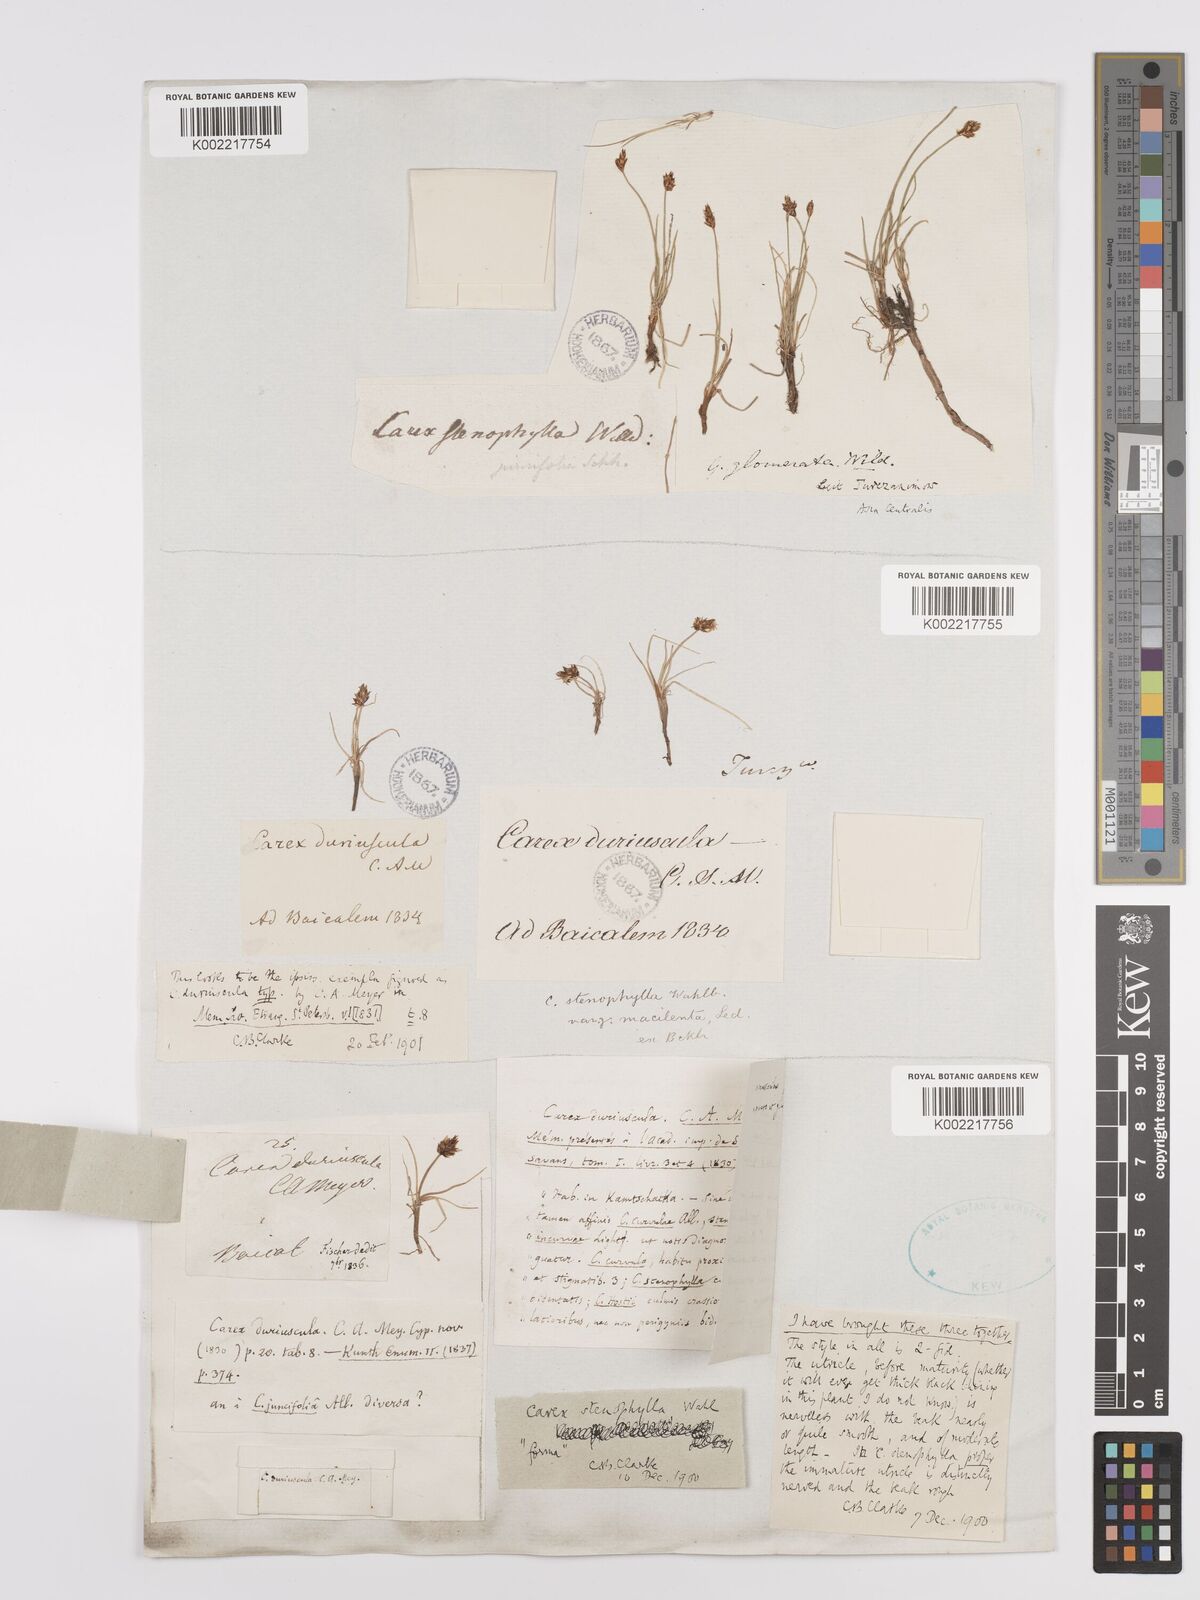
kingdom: Plantae
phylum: Tracheophyta
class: Liliopsida
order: Poales
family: Cyperaceae
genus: Carex
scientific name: Carex stenophylla
